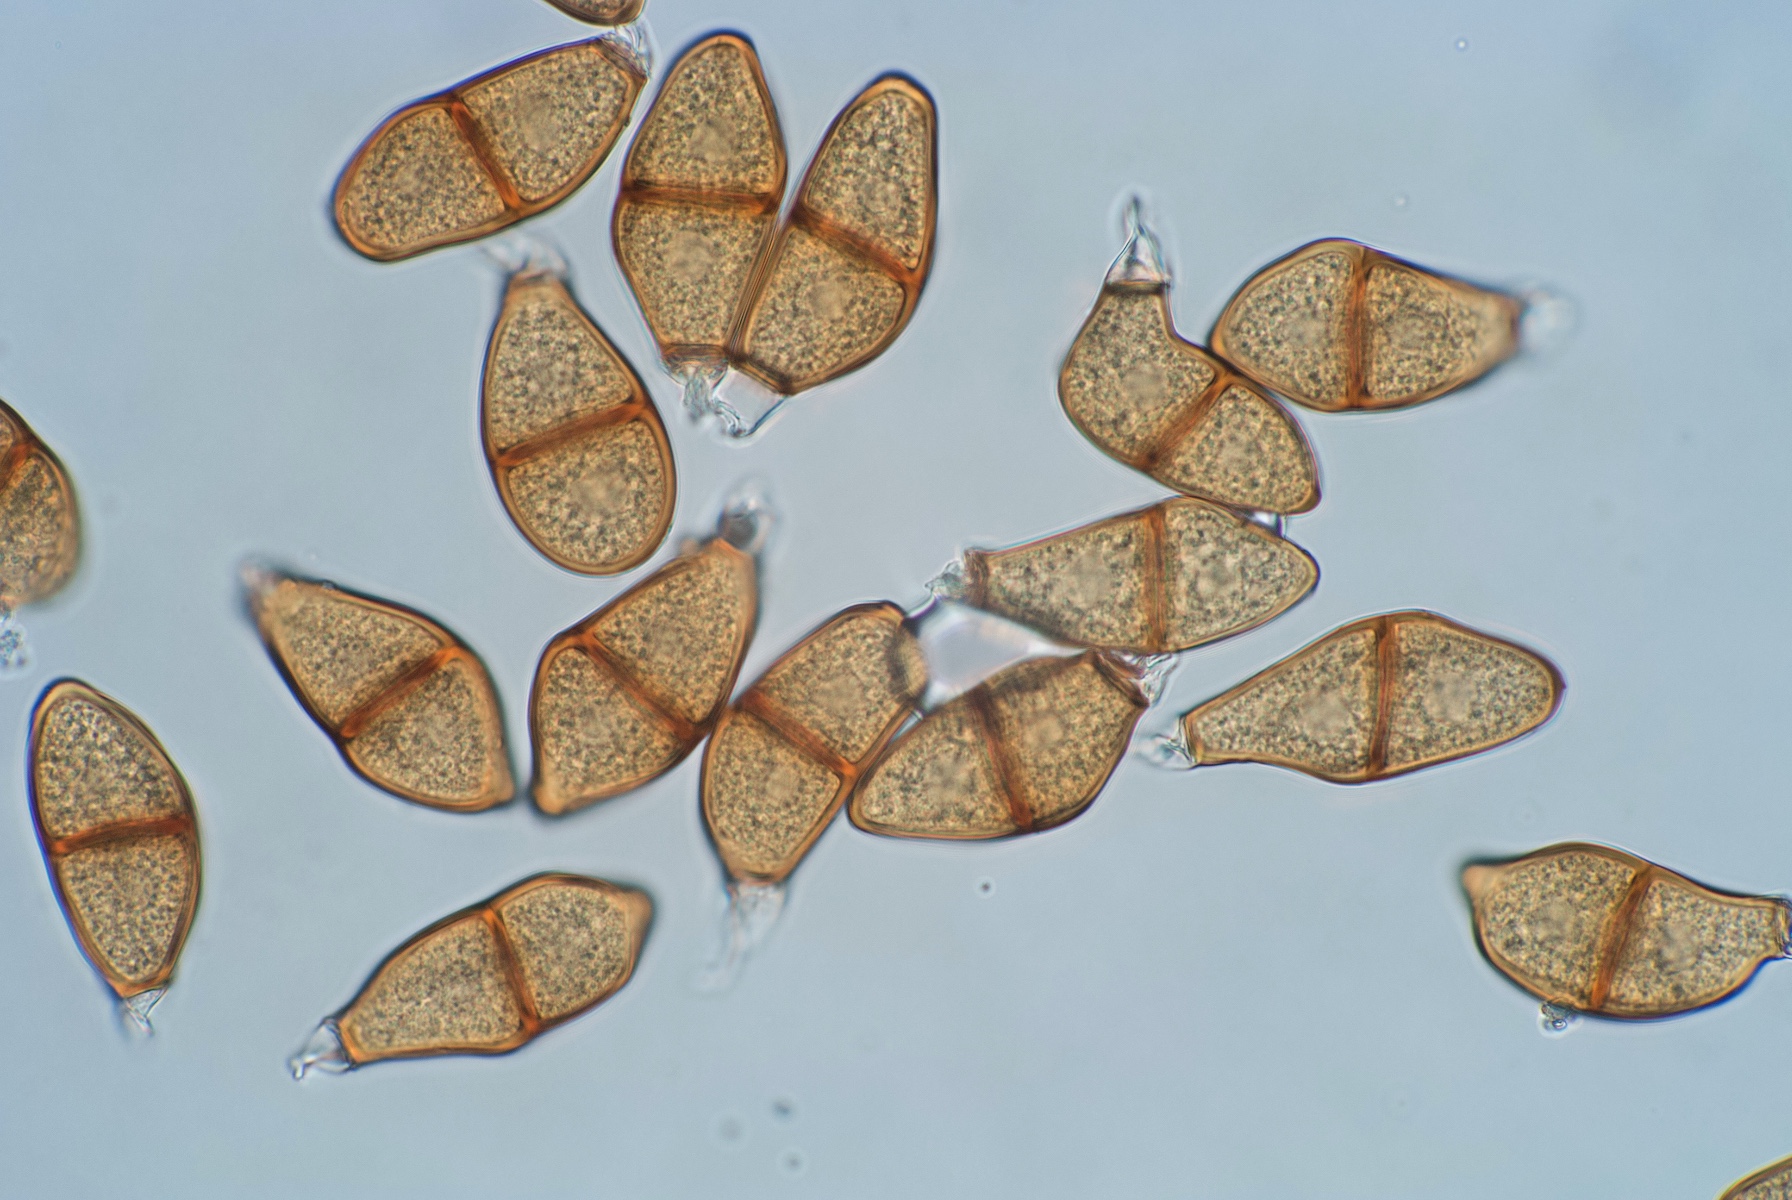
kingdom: Fungi
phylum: Basidiomycota
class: Pucciniomycetes
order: Pucciniales
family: Pucciniaceae
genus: Puccinia
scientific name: Puccinia liliacearum
